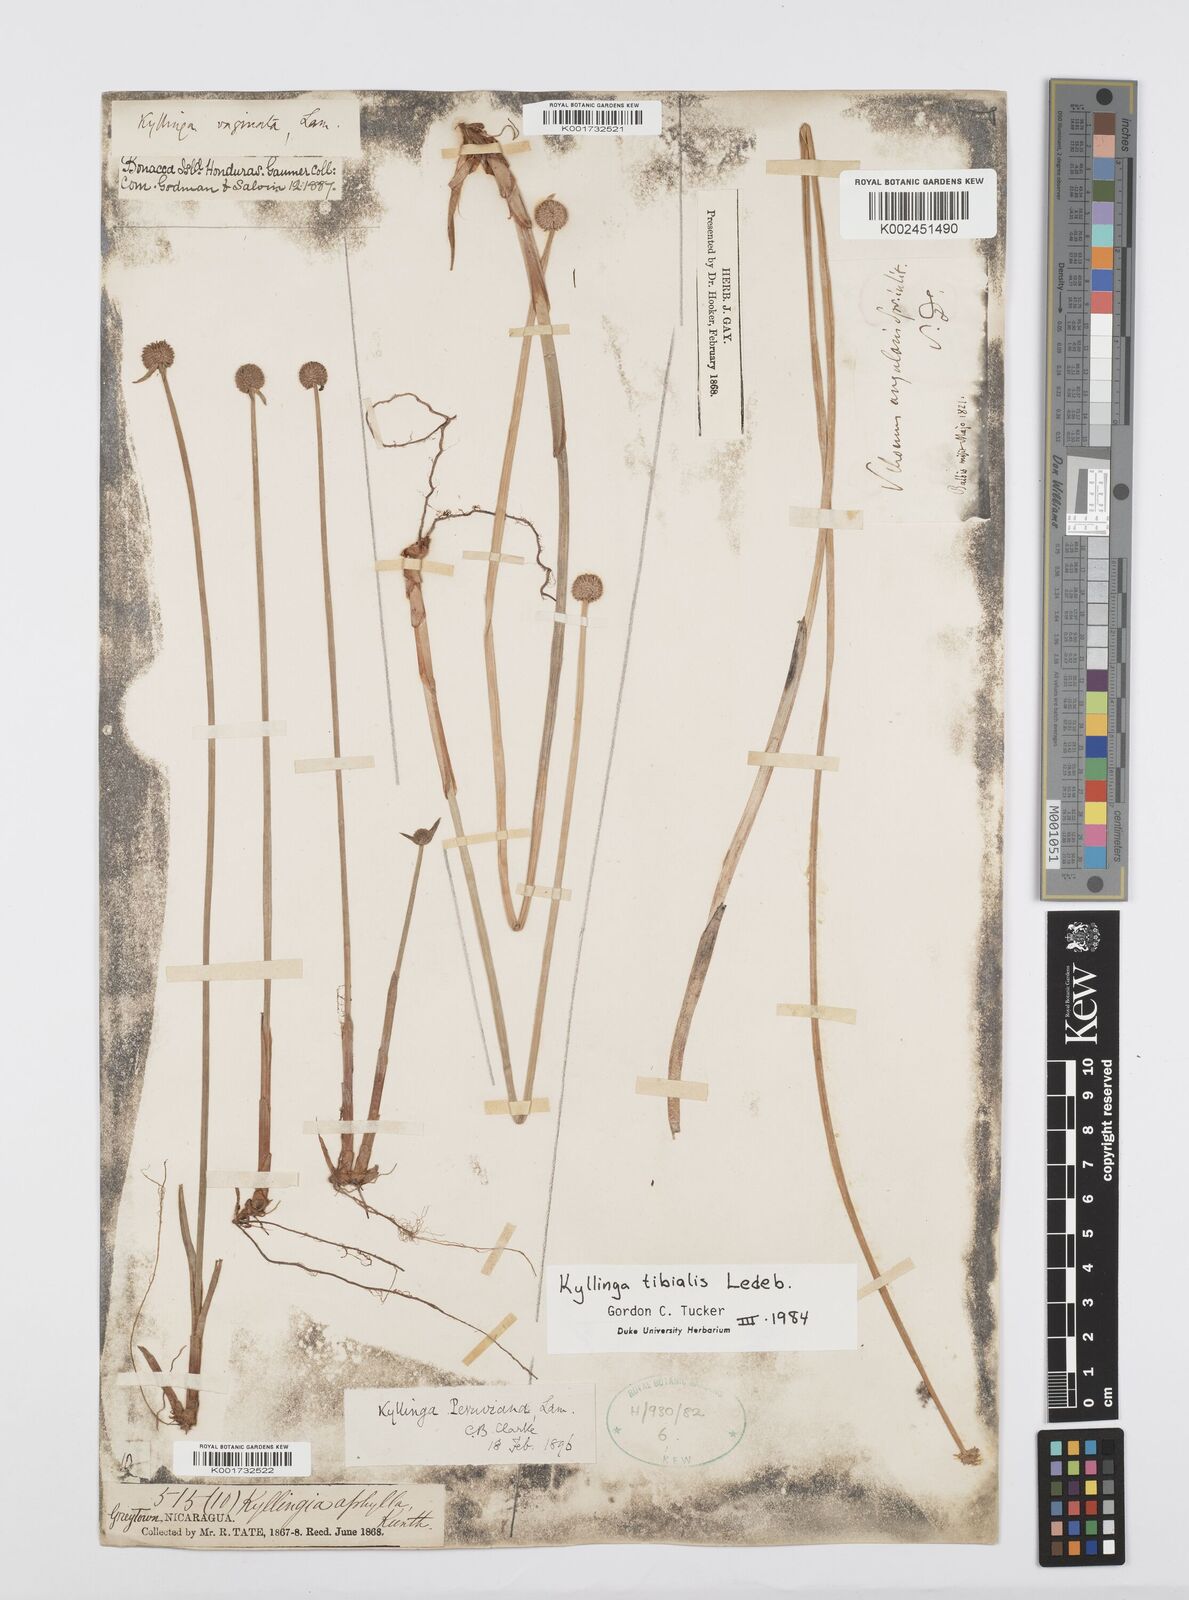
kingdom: Plantae
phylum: Tracheophyta
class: Liliopsida
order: Poales
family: Cyperaceae
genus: Cyperus
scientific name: Cyperus obtusatus
